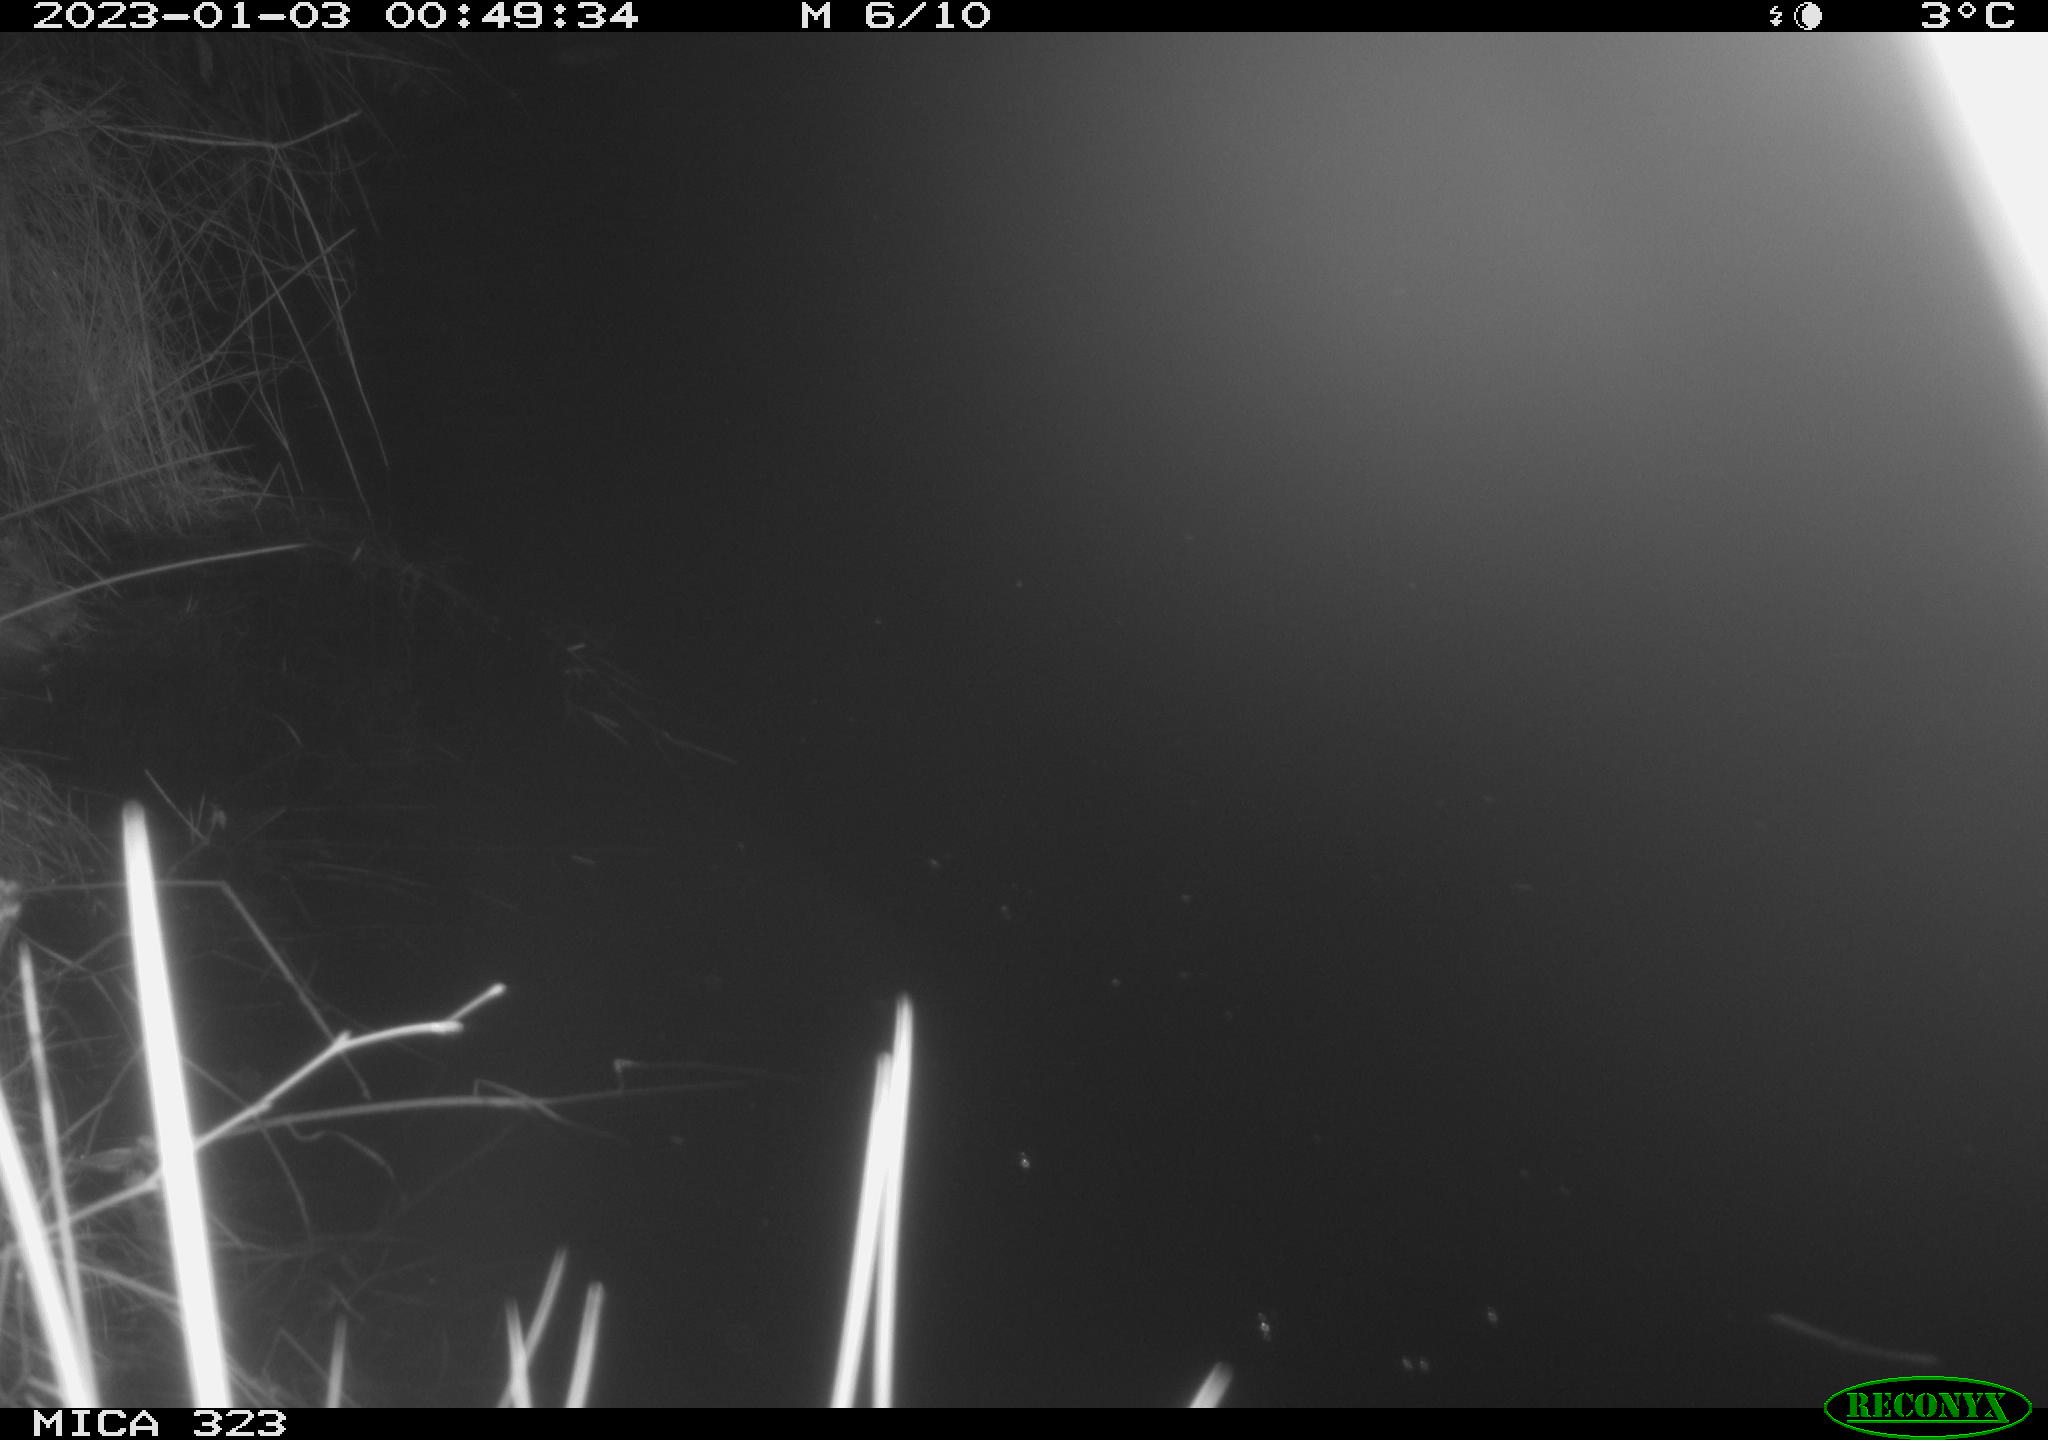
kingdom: Animalia
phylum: Chordata
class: Mammalia
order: Rodentia
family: Cricetidae
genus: Ondatra
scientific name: Ondatra zibethicus
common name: Muskrat
